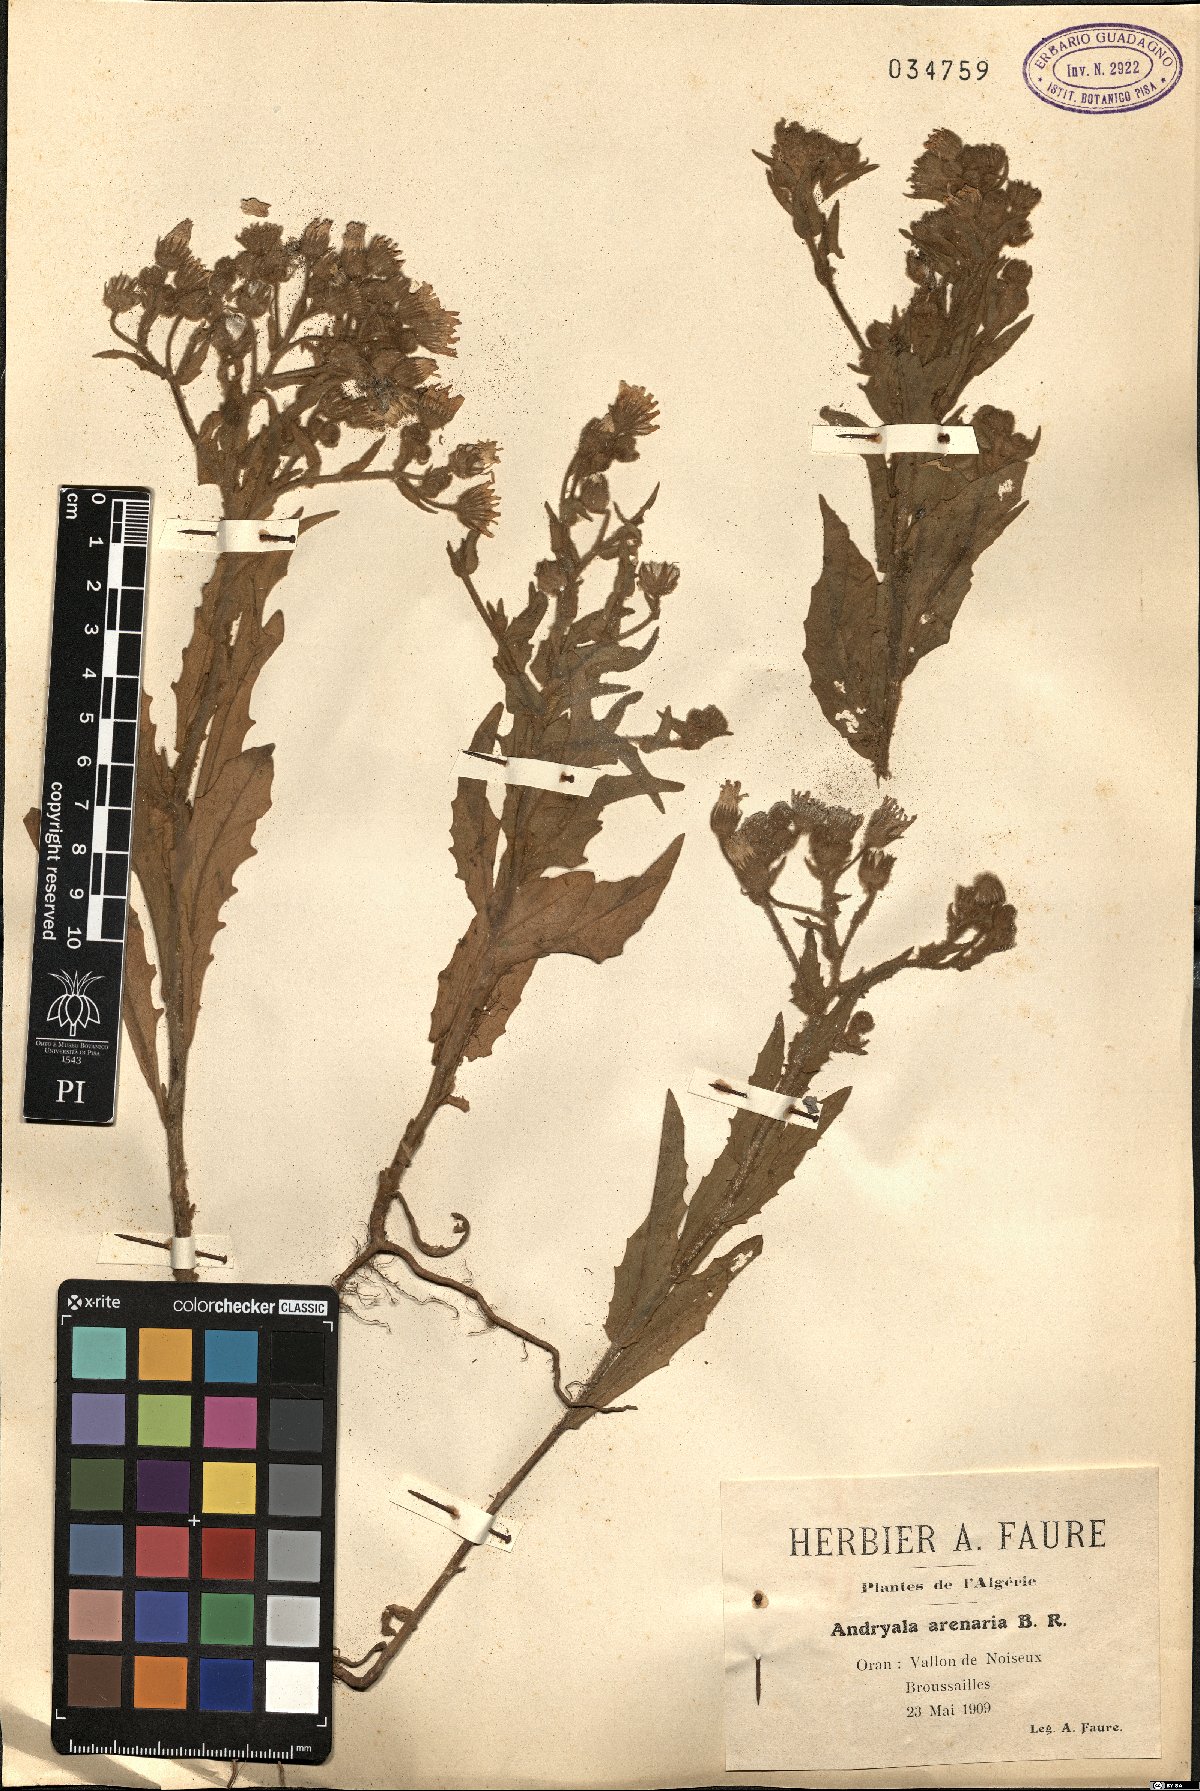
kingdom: Plantae
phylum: Tracheophyta
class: Magnoliopsida
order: Asterales
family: Asteraceae
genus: Andryala
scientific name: Andryala arenaria
